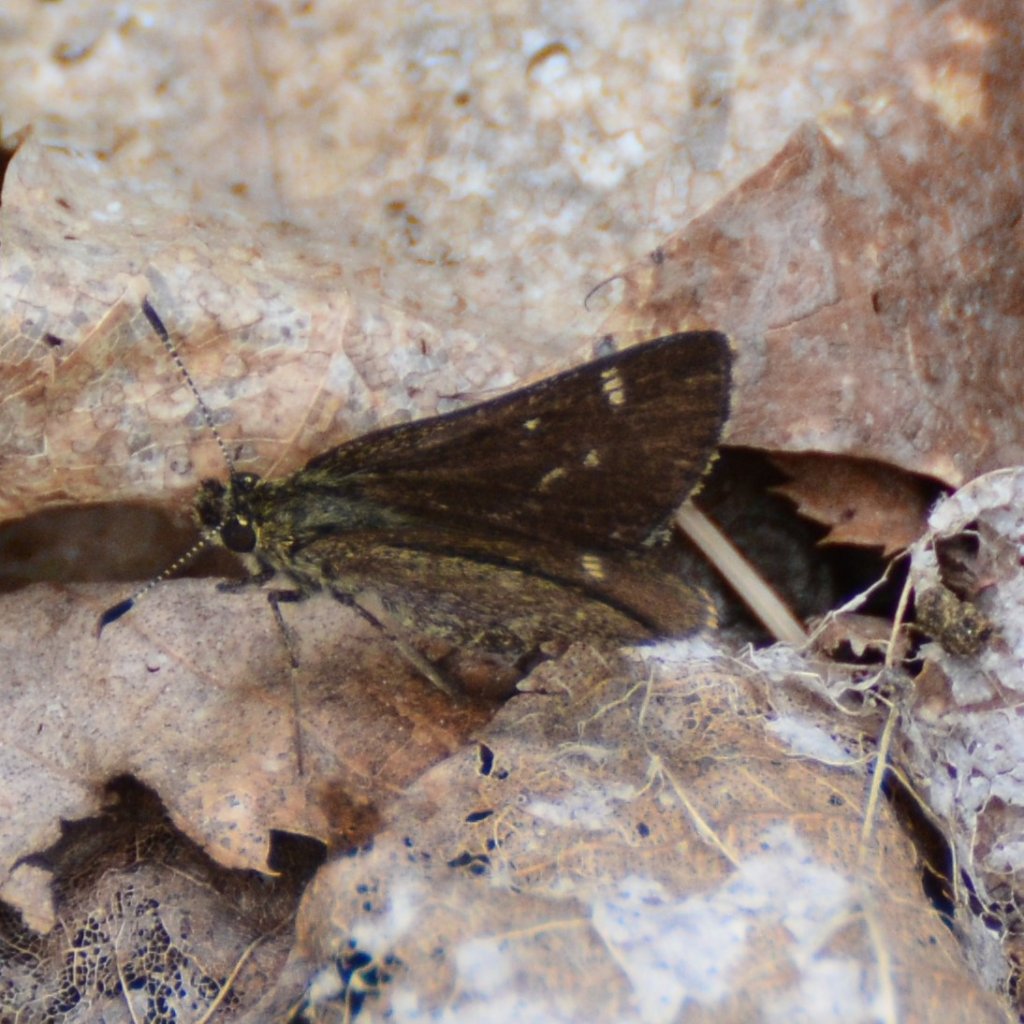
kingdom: Animalia
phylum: Arthropoda
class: Insecta
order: Lepidoptera
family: Hesperiidae
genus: Mastor
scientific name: Mastor hegon
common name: Pepper and Salt Skipper
